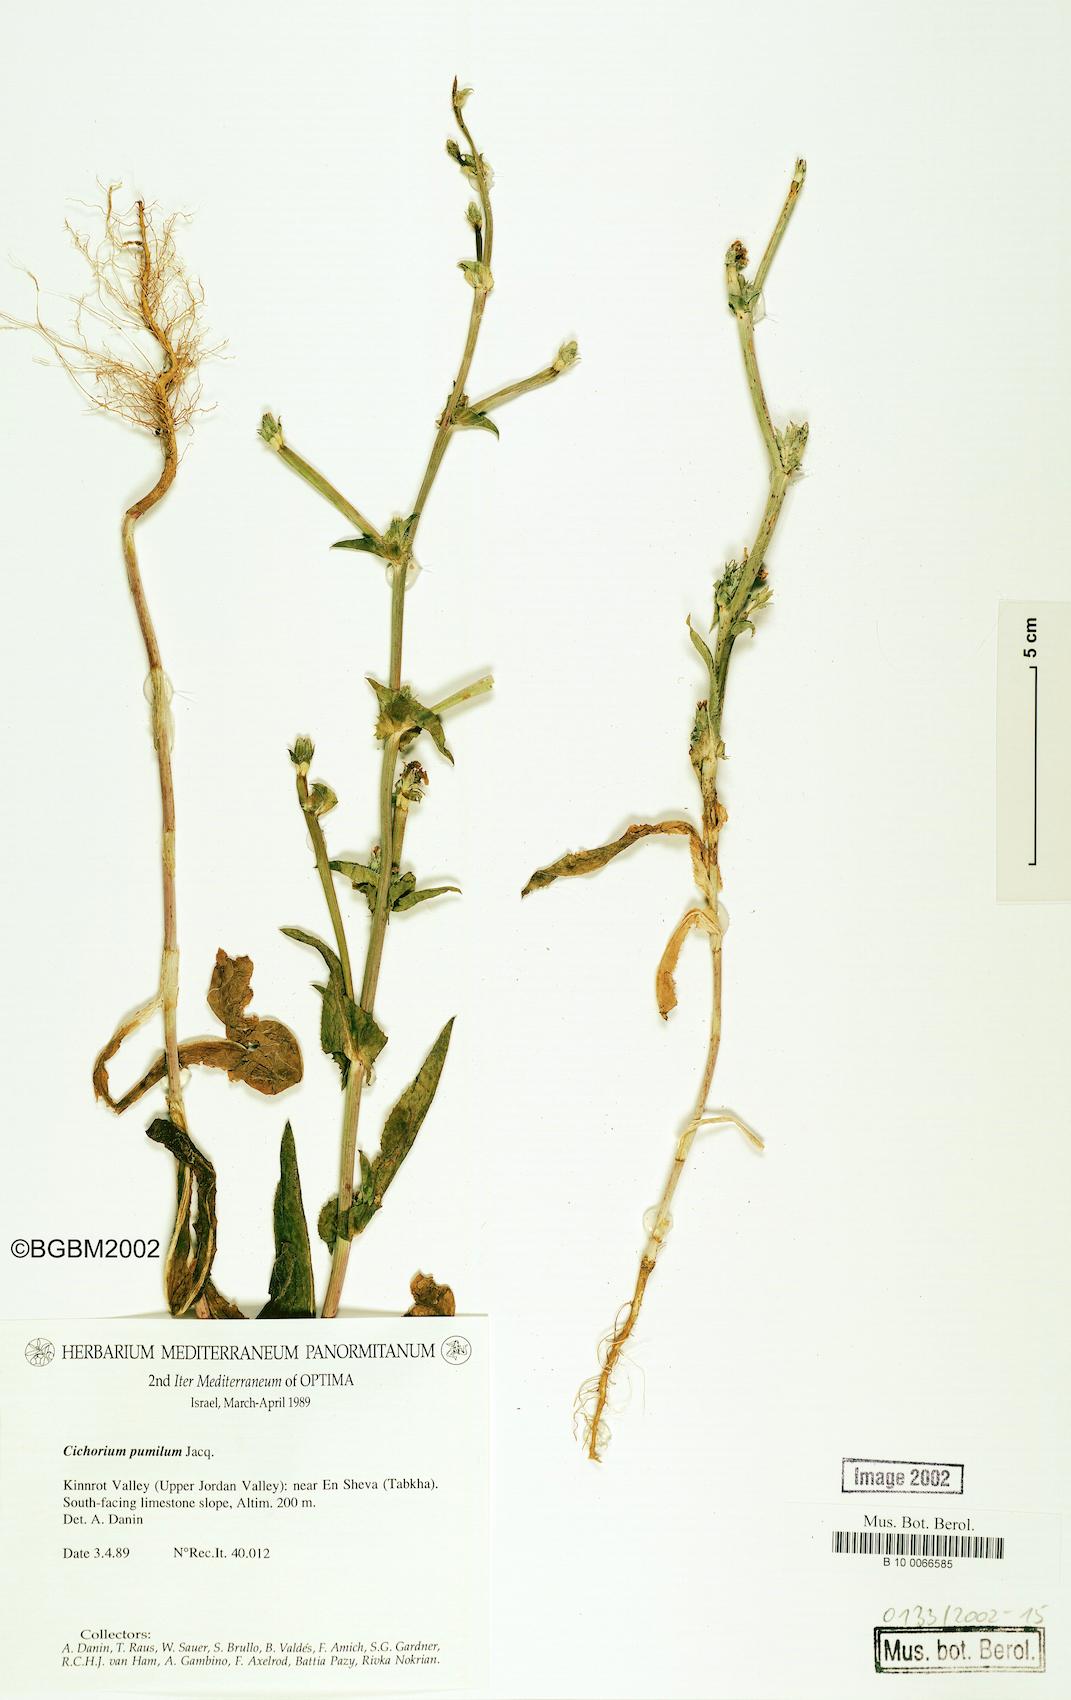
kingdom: Plantae
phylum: Tracheophyta
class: Magnoliopsida
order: Asterales
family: Asteraceae
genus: Cichorium
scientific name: Cichorium pumilum
